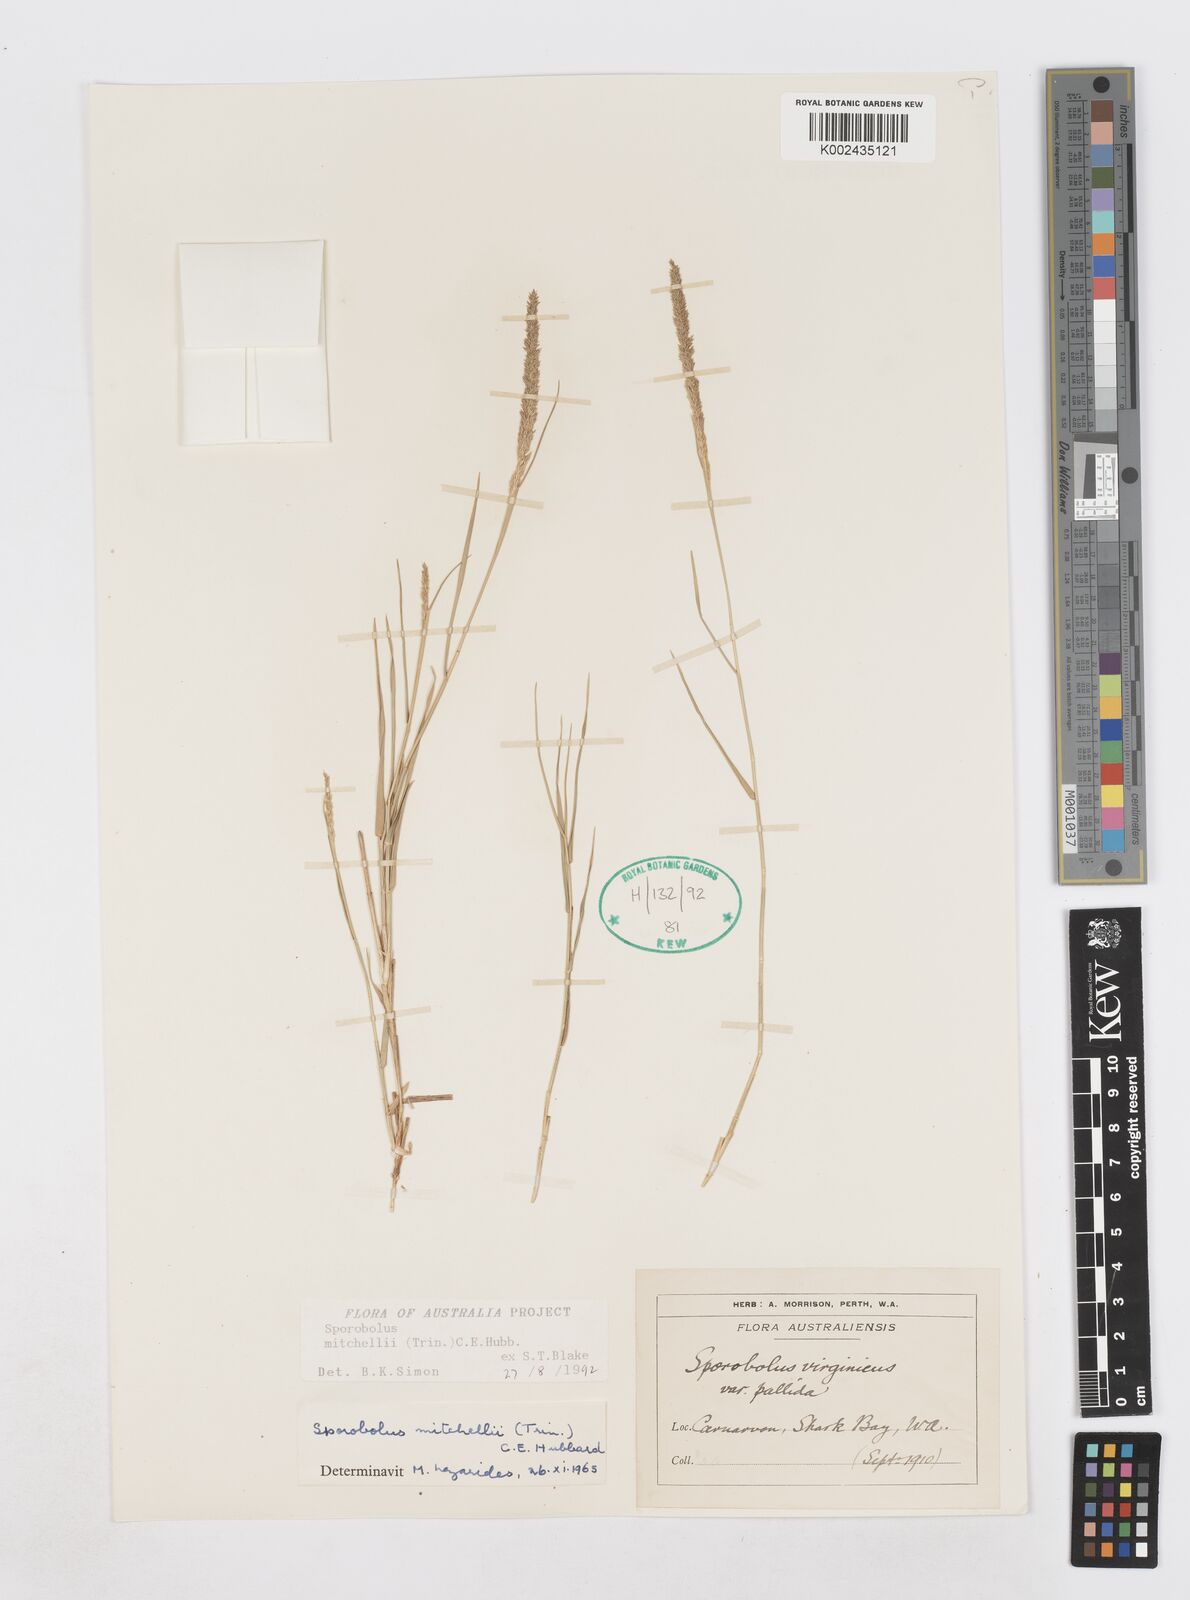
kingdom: Plantae
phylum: Tracheophyta
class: Liliopsida
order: Poales
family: Poaceae
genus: Sporobolus
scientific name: Sporobolus mitchellii
